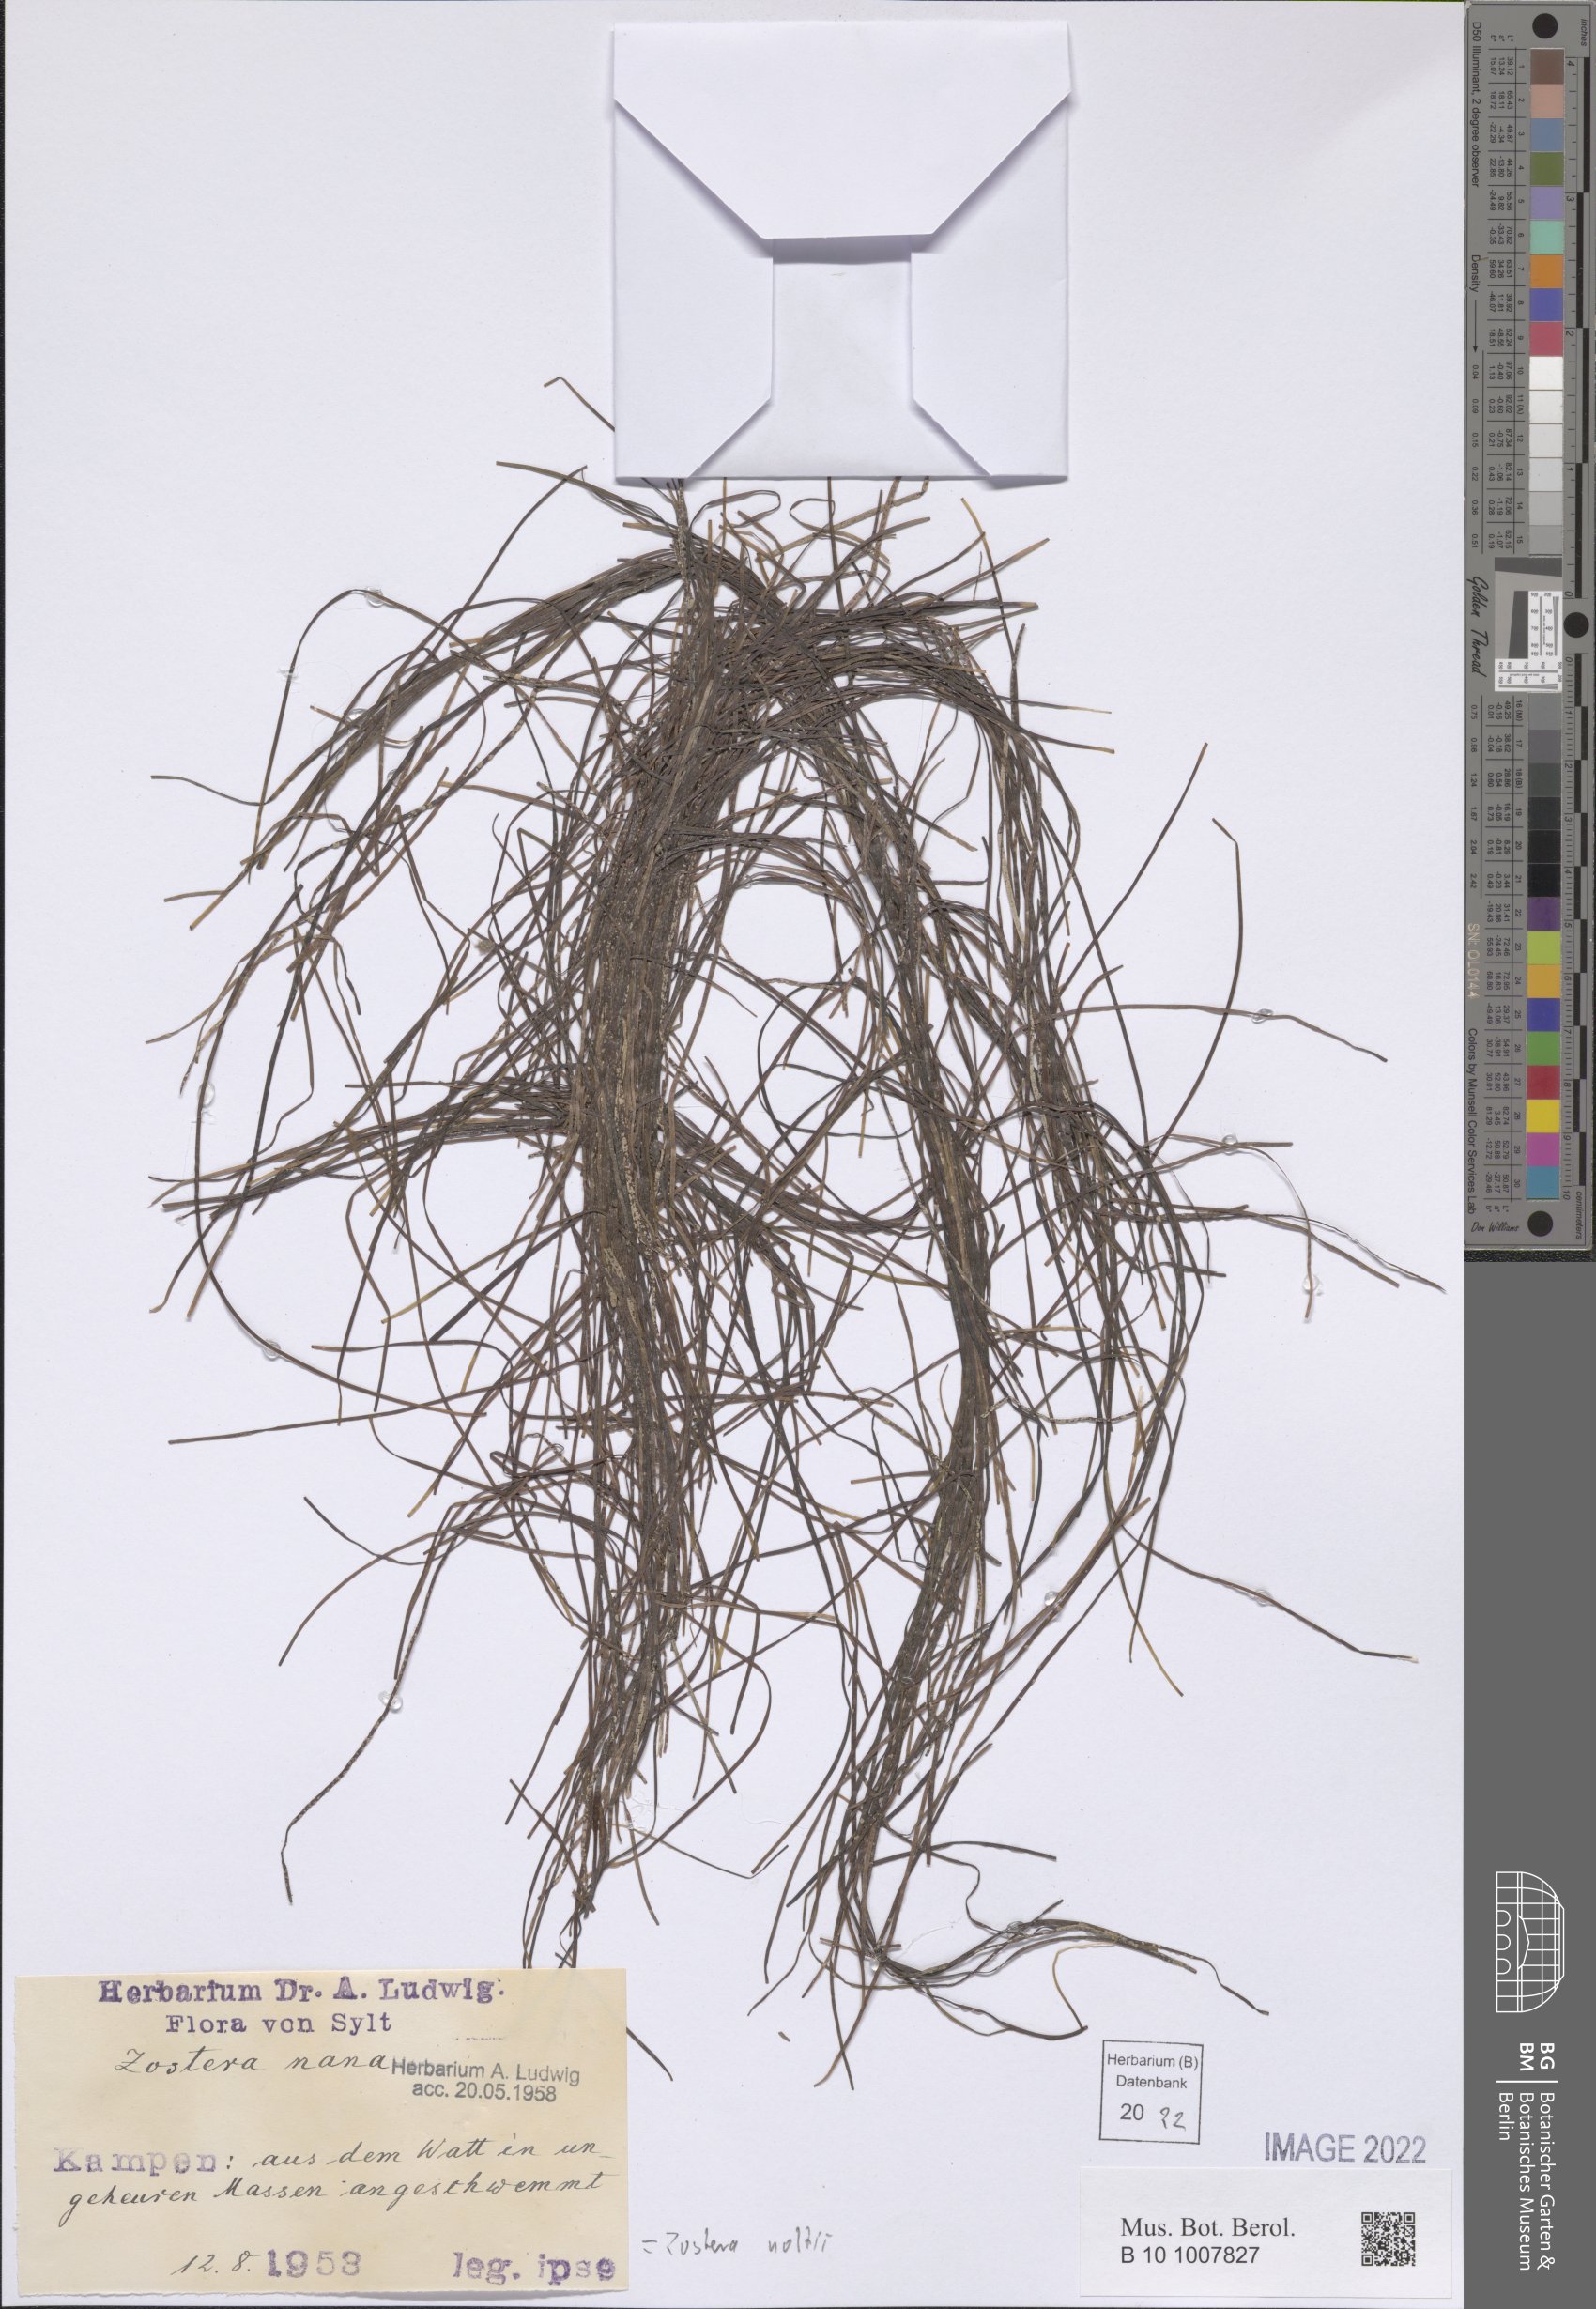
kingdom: Plantae
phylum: Tracheophyta
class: Liliopsida
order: Alismatales
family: Zosteraceae
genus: Zostera
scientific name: Zostera noltii
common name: Dwarf eelgrass
